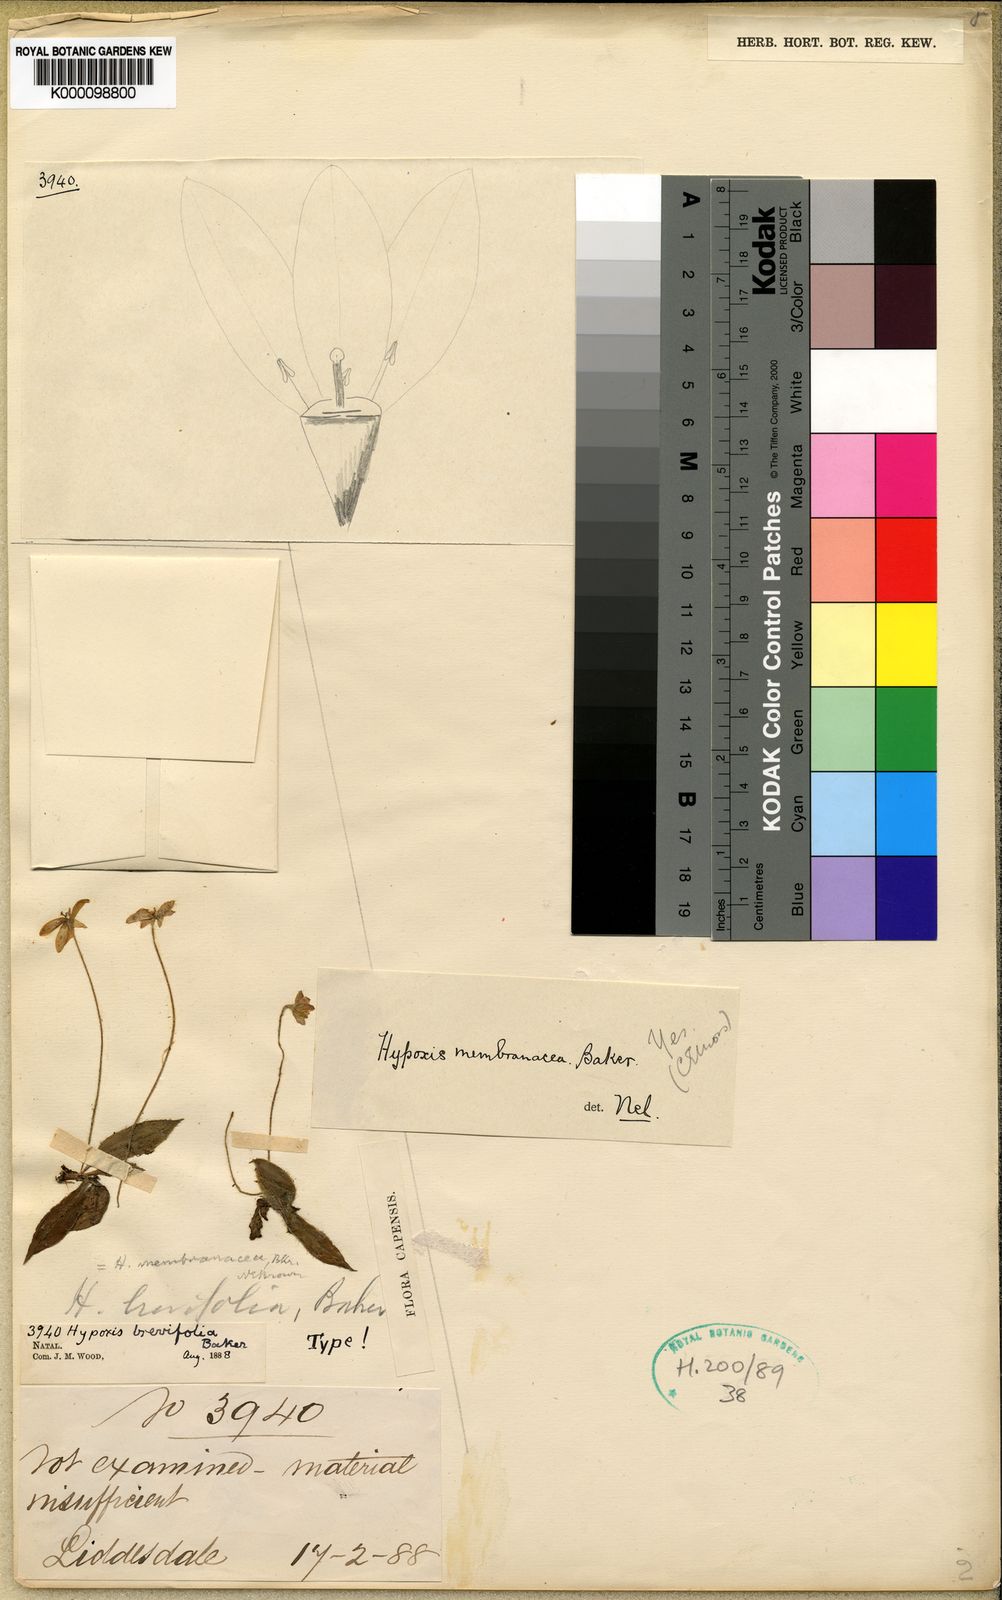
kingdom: Plantae
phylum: Tracheophyta
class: Liliopsida
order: Asparagales
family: Hypoxidaceae
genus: Hypoxis
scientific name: Hypoxis membranacea
